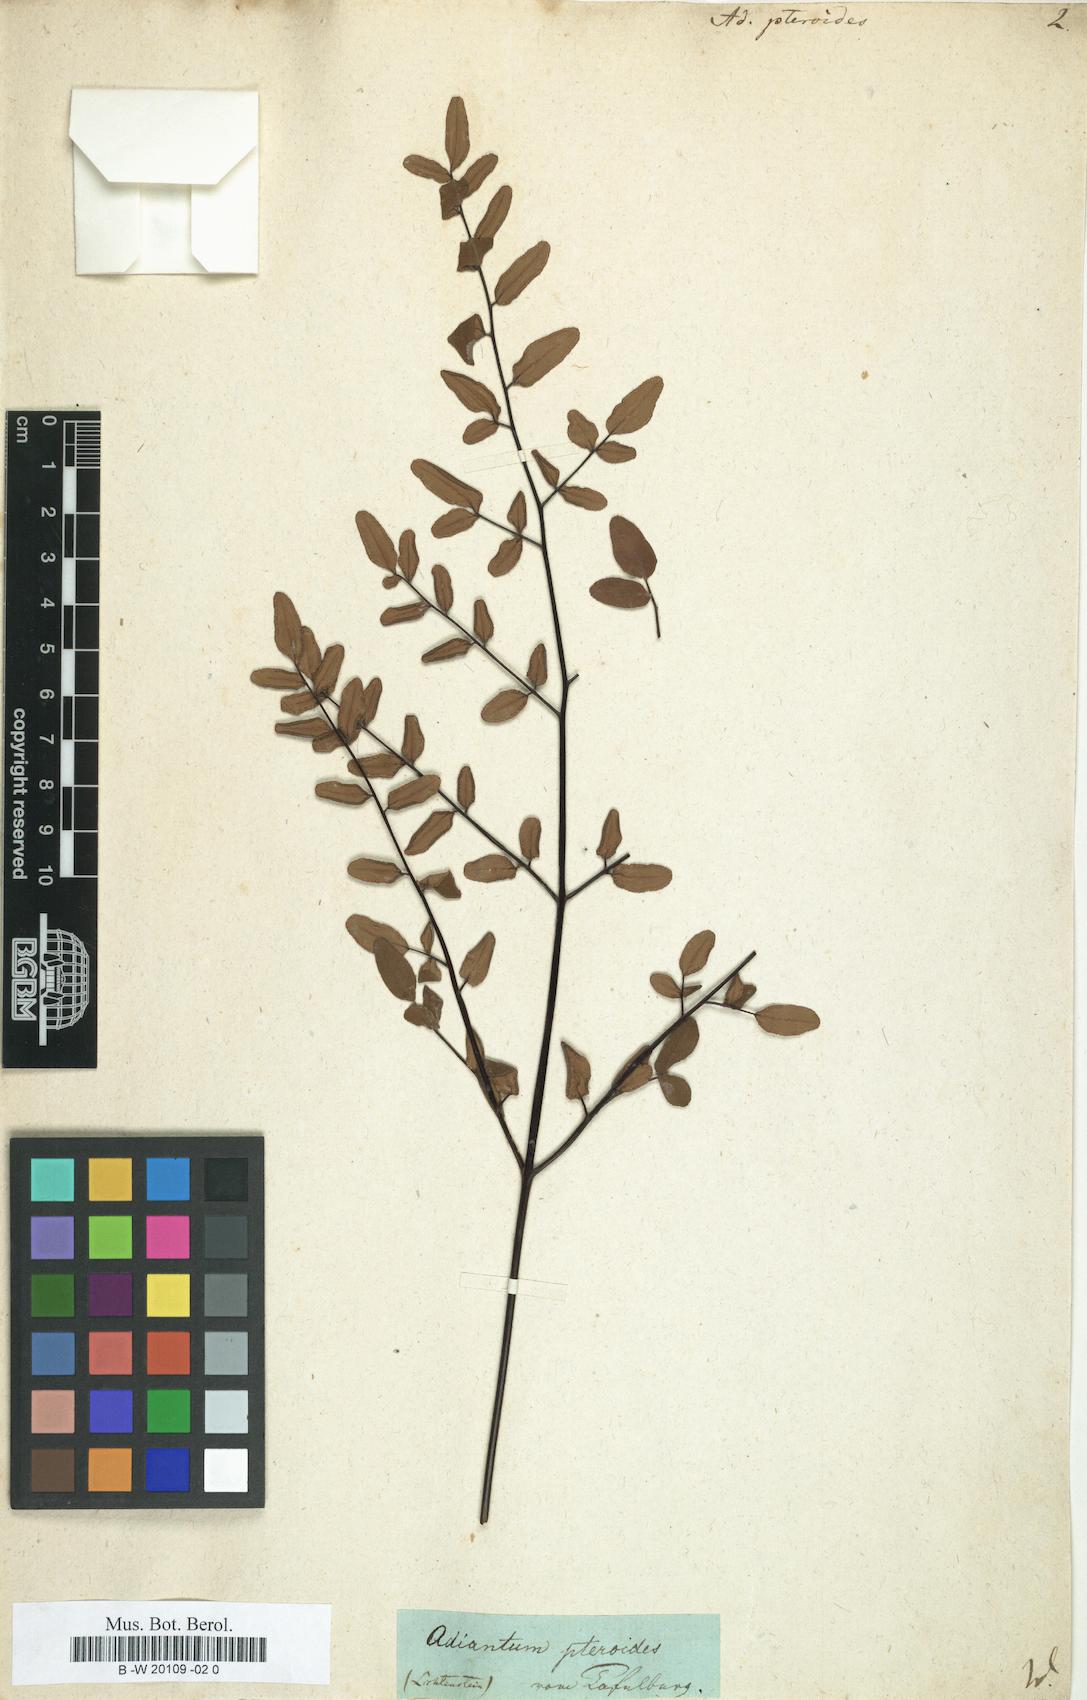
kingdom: Plantae
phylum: Tracheophyta
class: Polypodiopsida
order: Polypodiales
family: Pteridaceae
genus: Pellaea
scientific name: Pellaea pteroides
